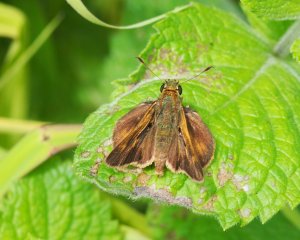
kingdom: Animalia
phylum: Arthropoda
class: Insecta
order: Lepidoptera
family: Hesperiidae
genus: Polites
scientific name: Polites egeremet
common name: Northern Broken-Dash
